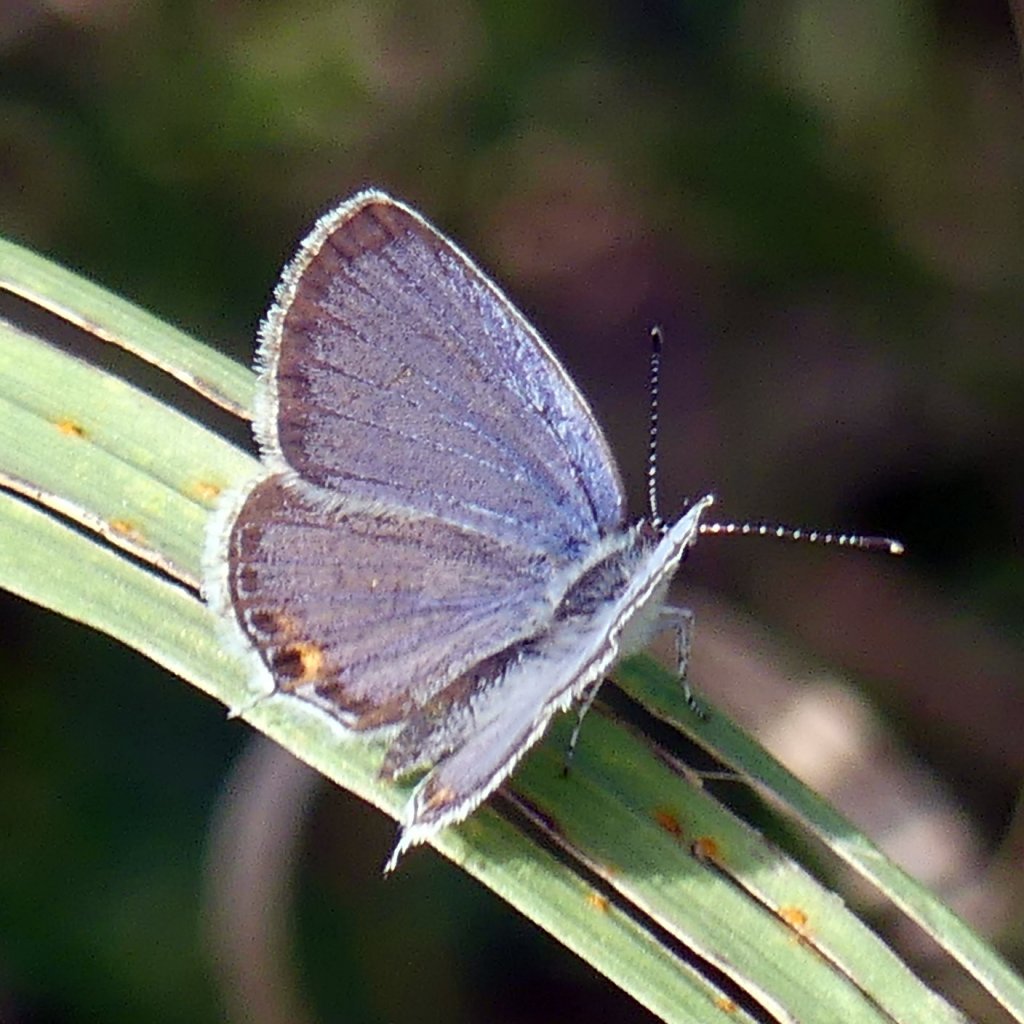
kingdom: Animalia
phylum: Arthropoda
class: Insecta
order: Lepidoptera
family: Lycaenidae
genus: Elkalyce
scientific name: Elkalyce comyntas
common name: Eastern Tailed-Blue
